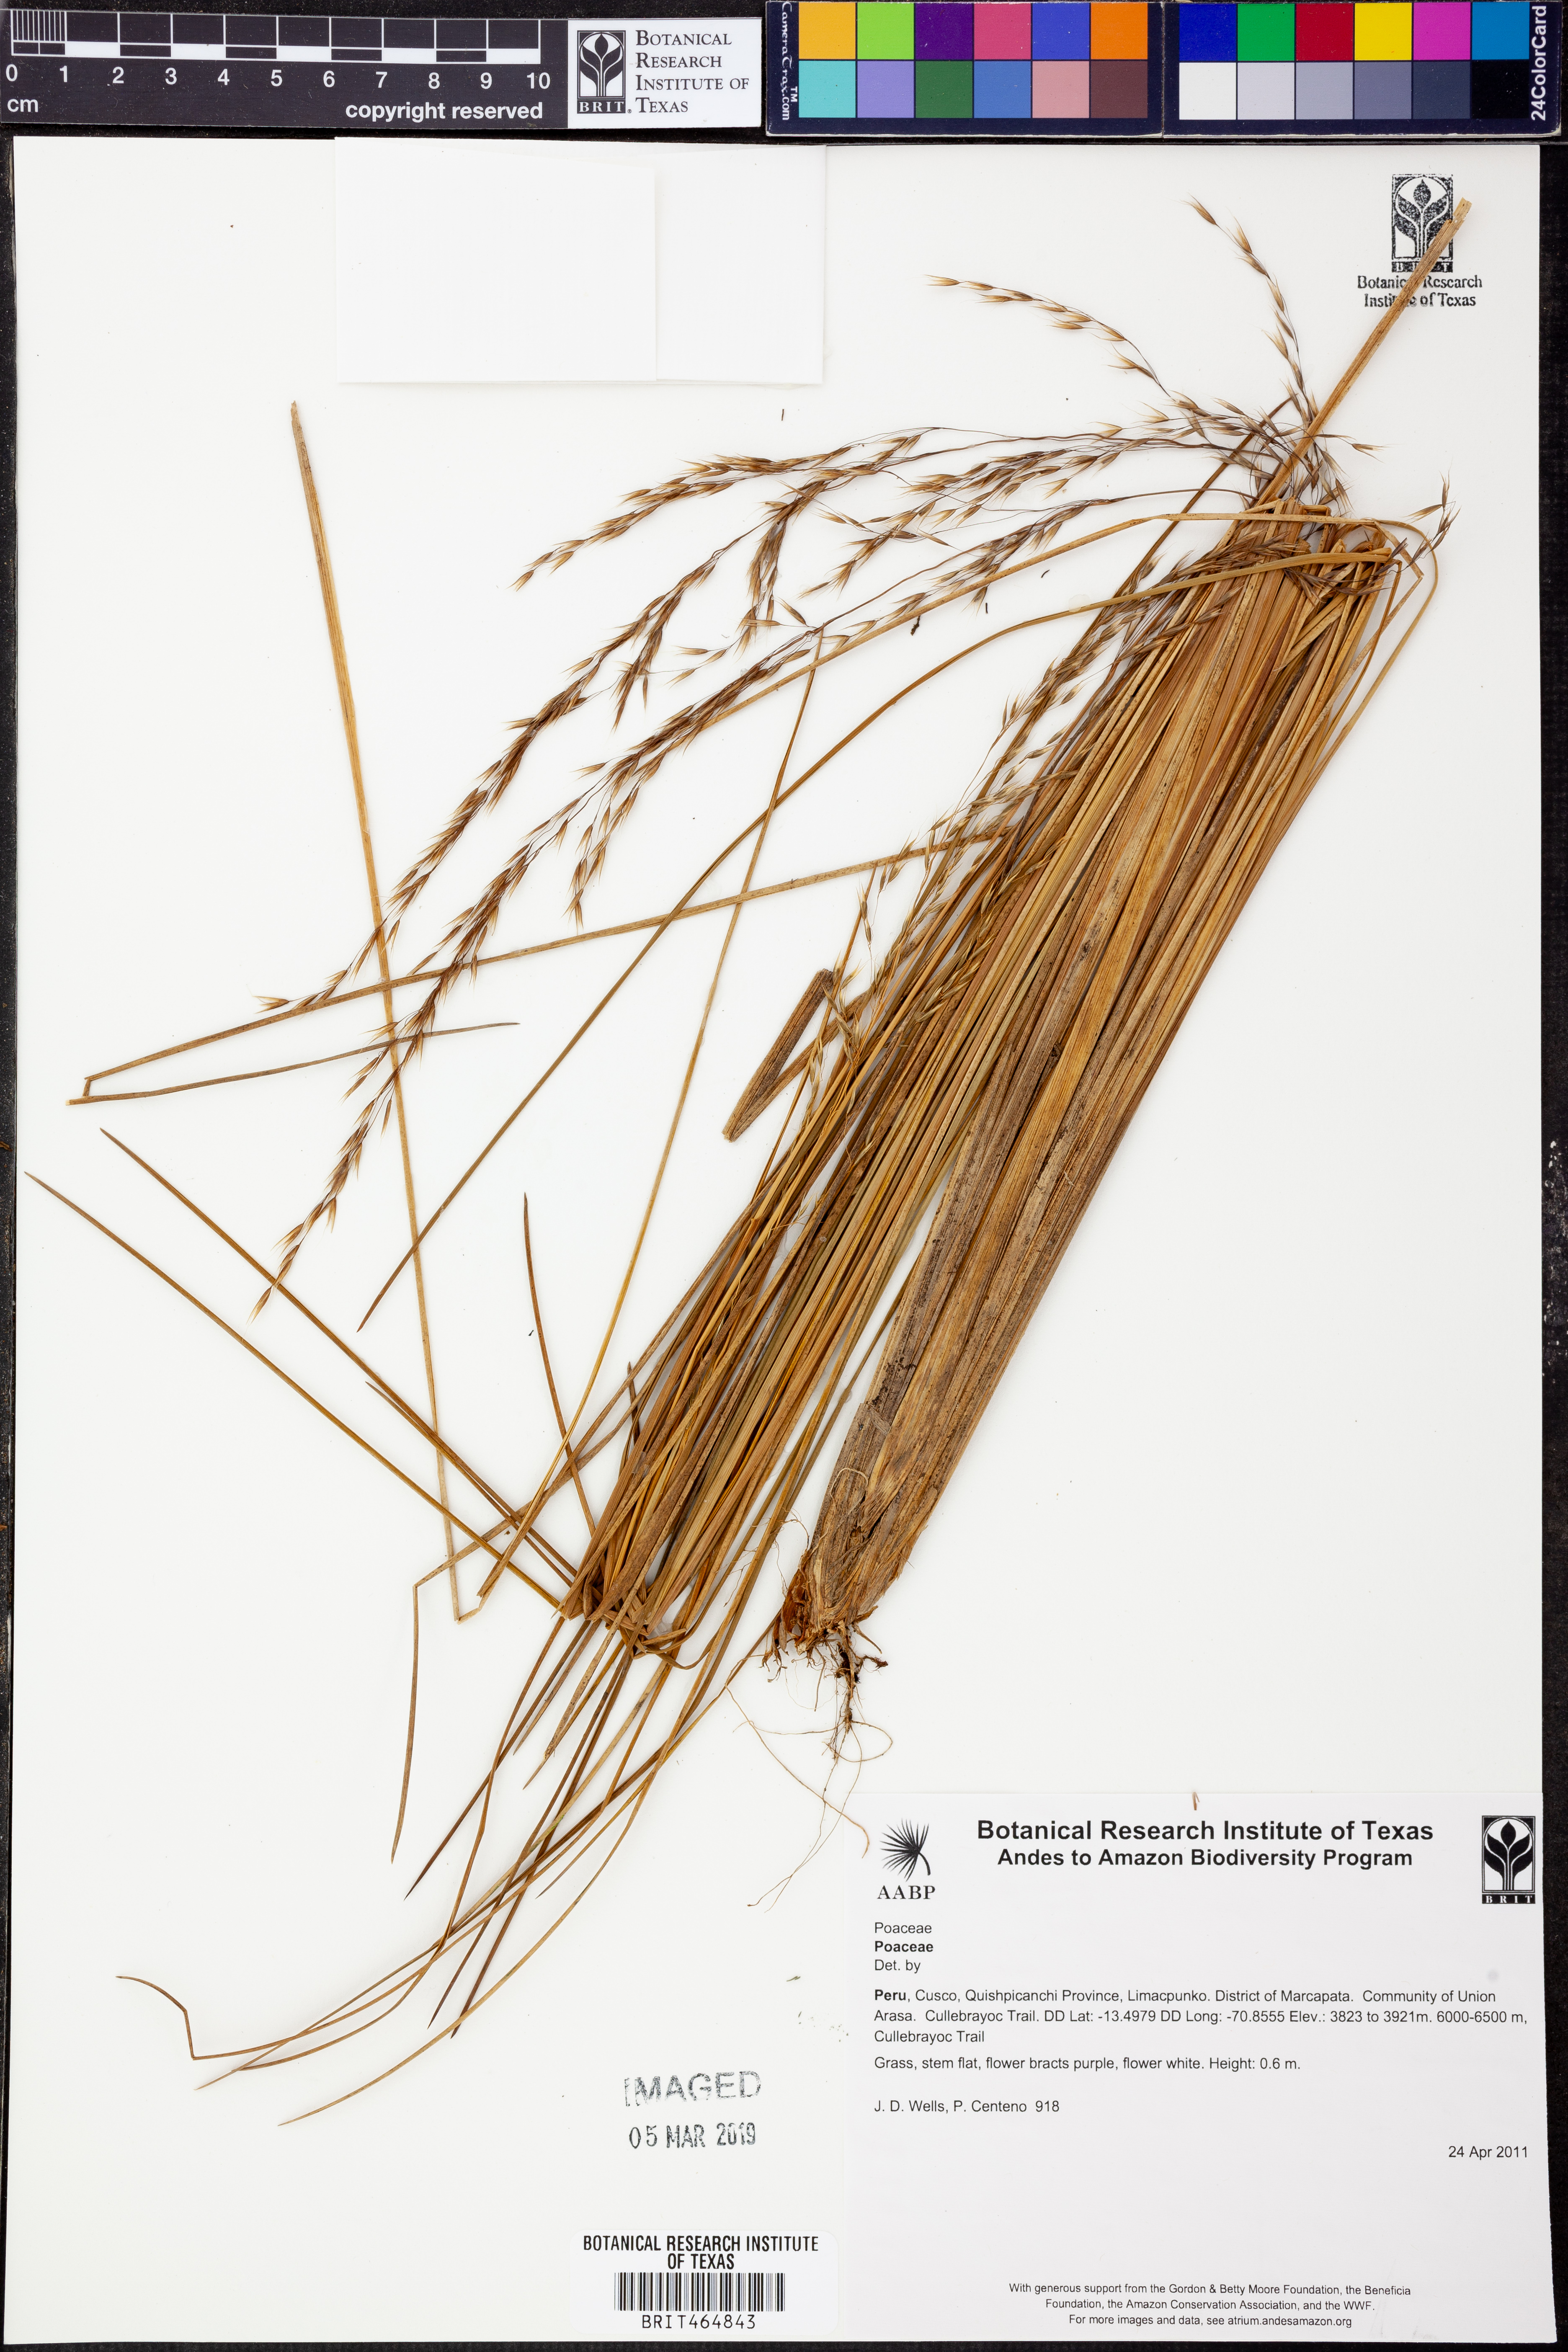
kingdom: Plantae
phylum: Tracheophyta
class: Liliopsida
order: Poales
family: Poaceae
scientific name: Poaceae
